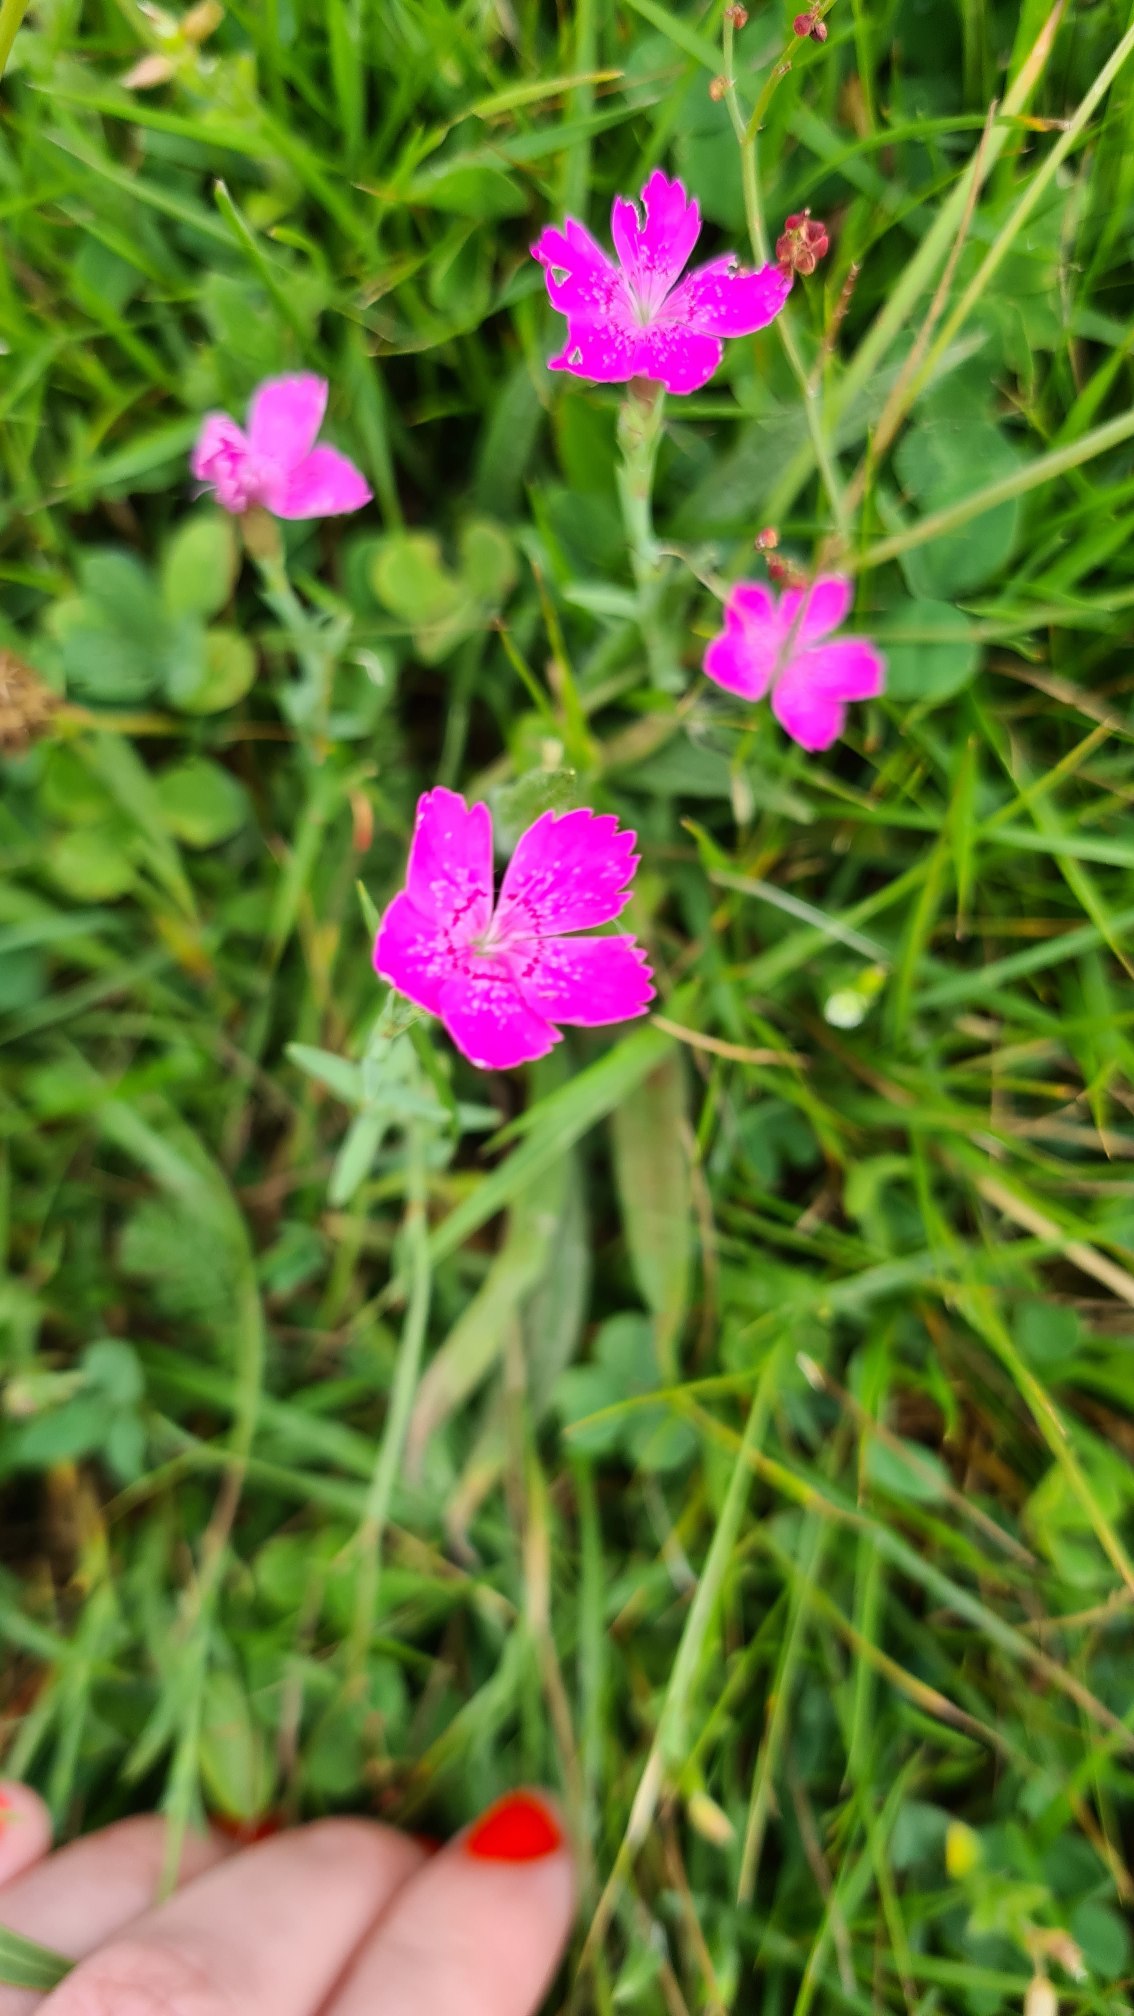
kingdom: Plantae
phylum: Tracheophyta
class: Magnoliopsida
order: Caryophyllales
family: Caryophyllaceae
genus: Dianthus
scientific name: Dianthus deltoides
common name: Bakke-nellike
